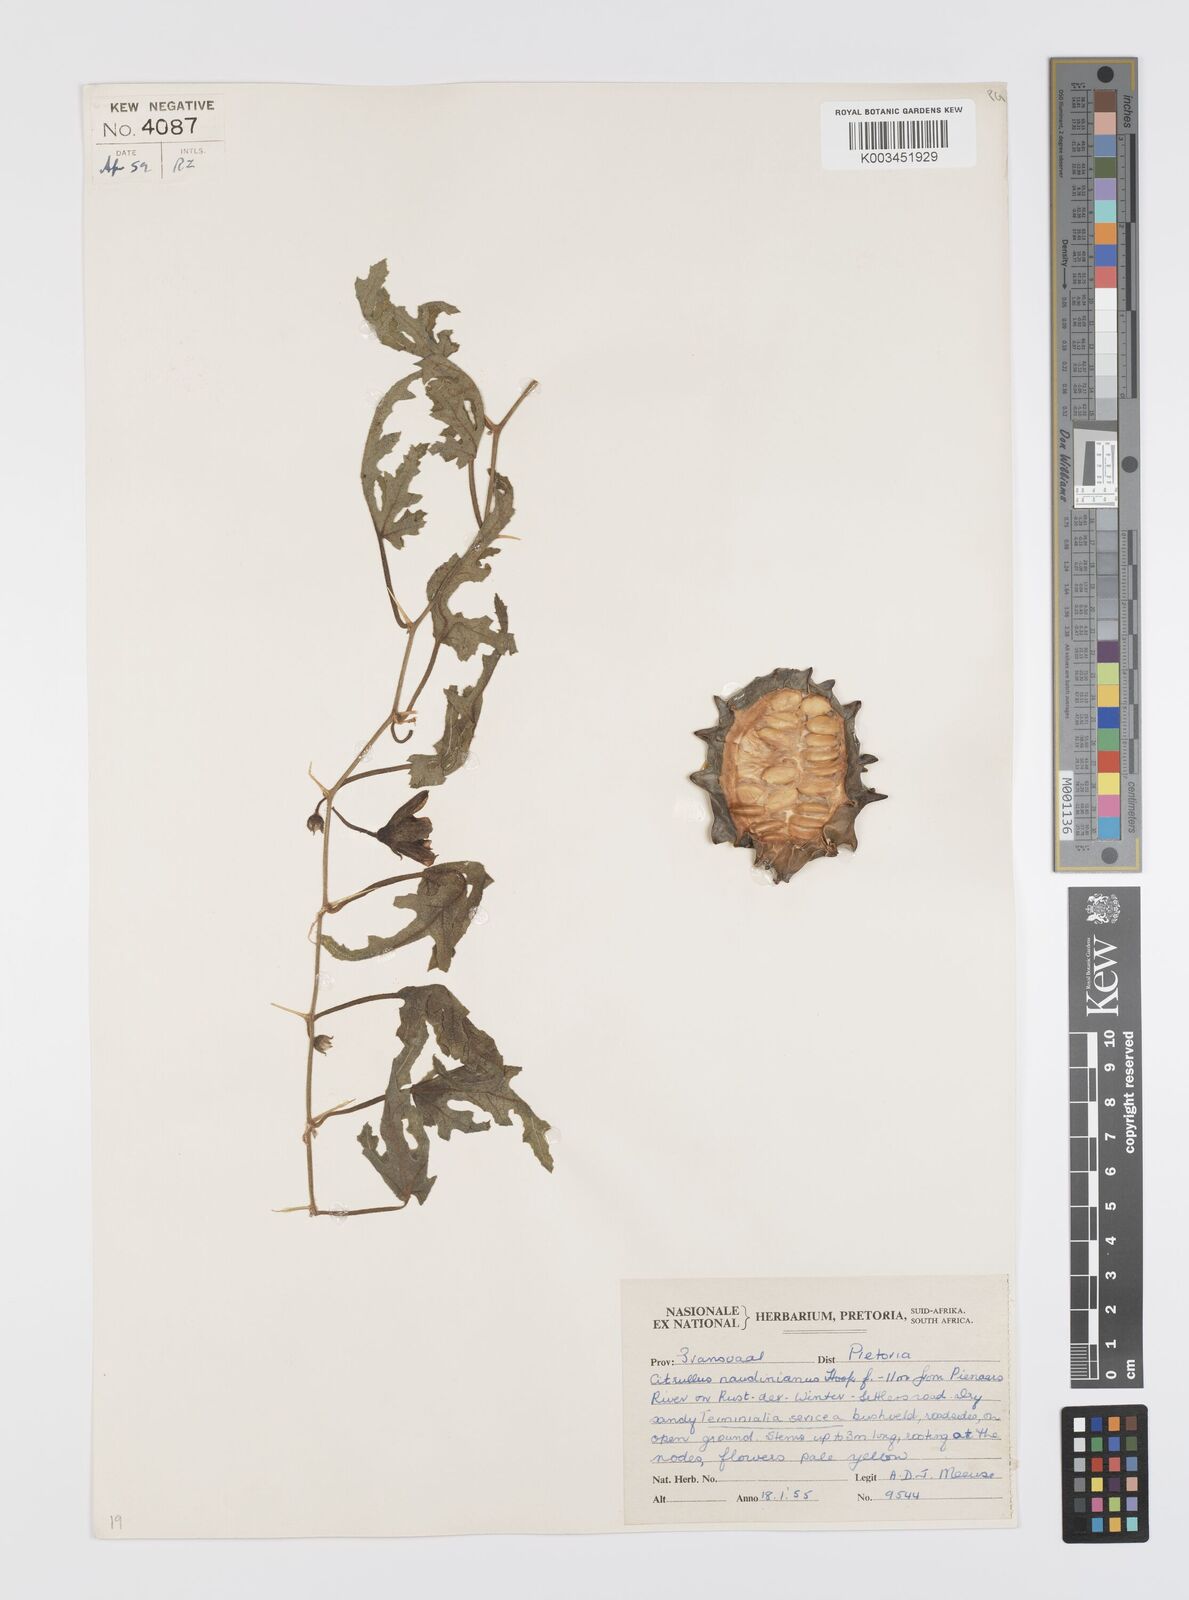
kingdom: Plantae
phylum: Tracheophyta
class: Magnoliopsida
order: Cucurbitales
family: Cucurbitaceae
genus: Citrullus
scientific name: Citrullus naudinianus
